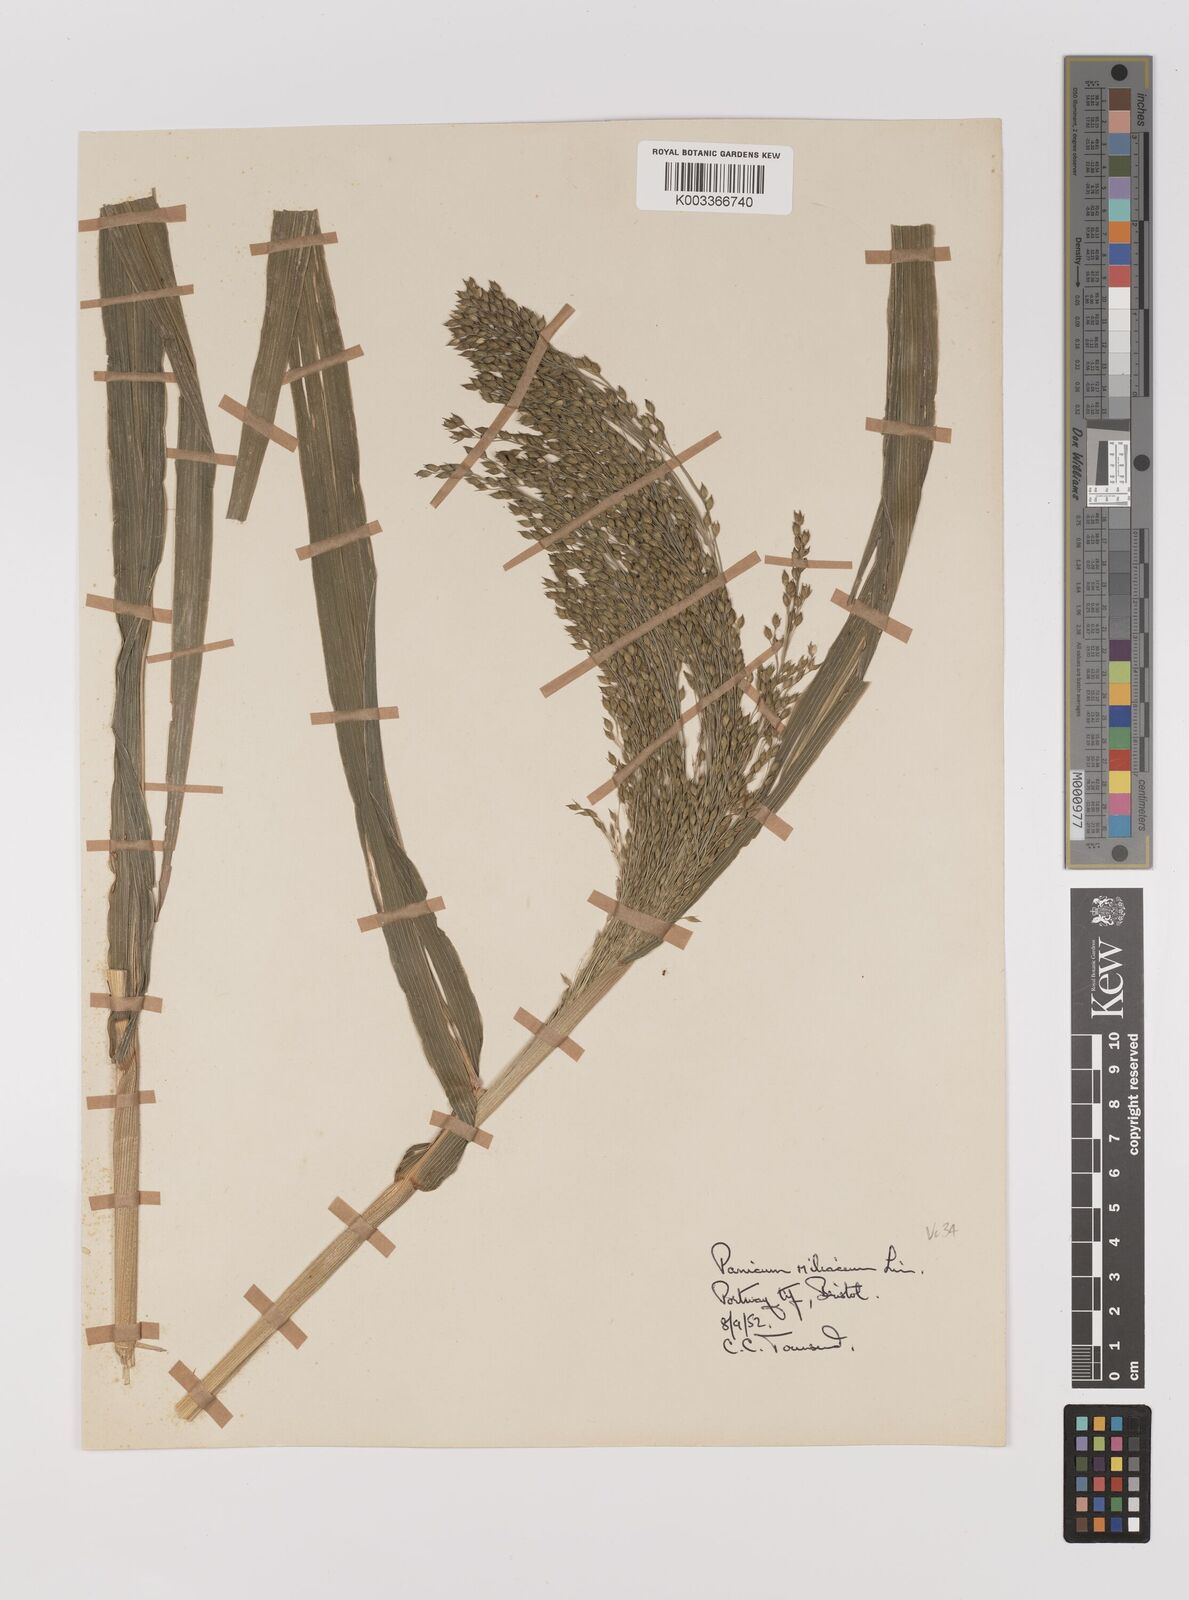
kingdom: Plantae
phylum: Tracheophyta
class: Liliopsida
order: Poales
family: Poaceae
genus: Panicum
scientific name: Panicum miliaceum
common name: Common millet
